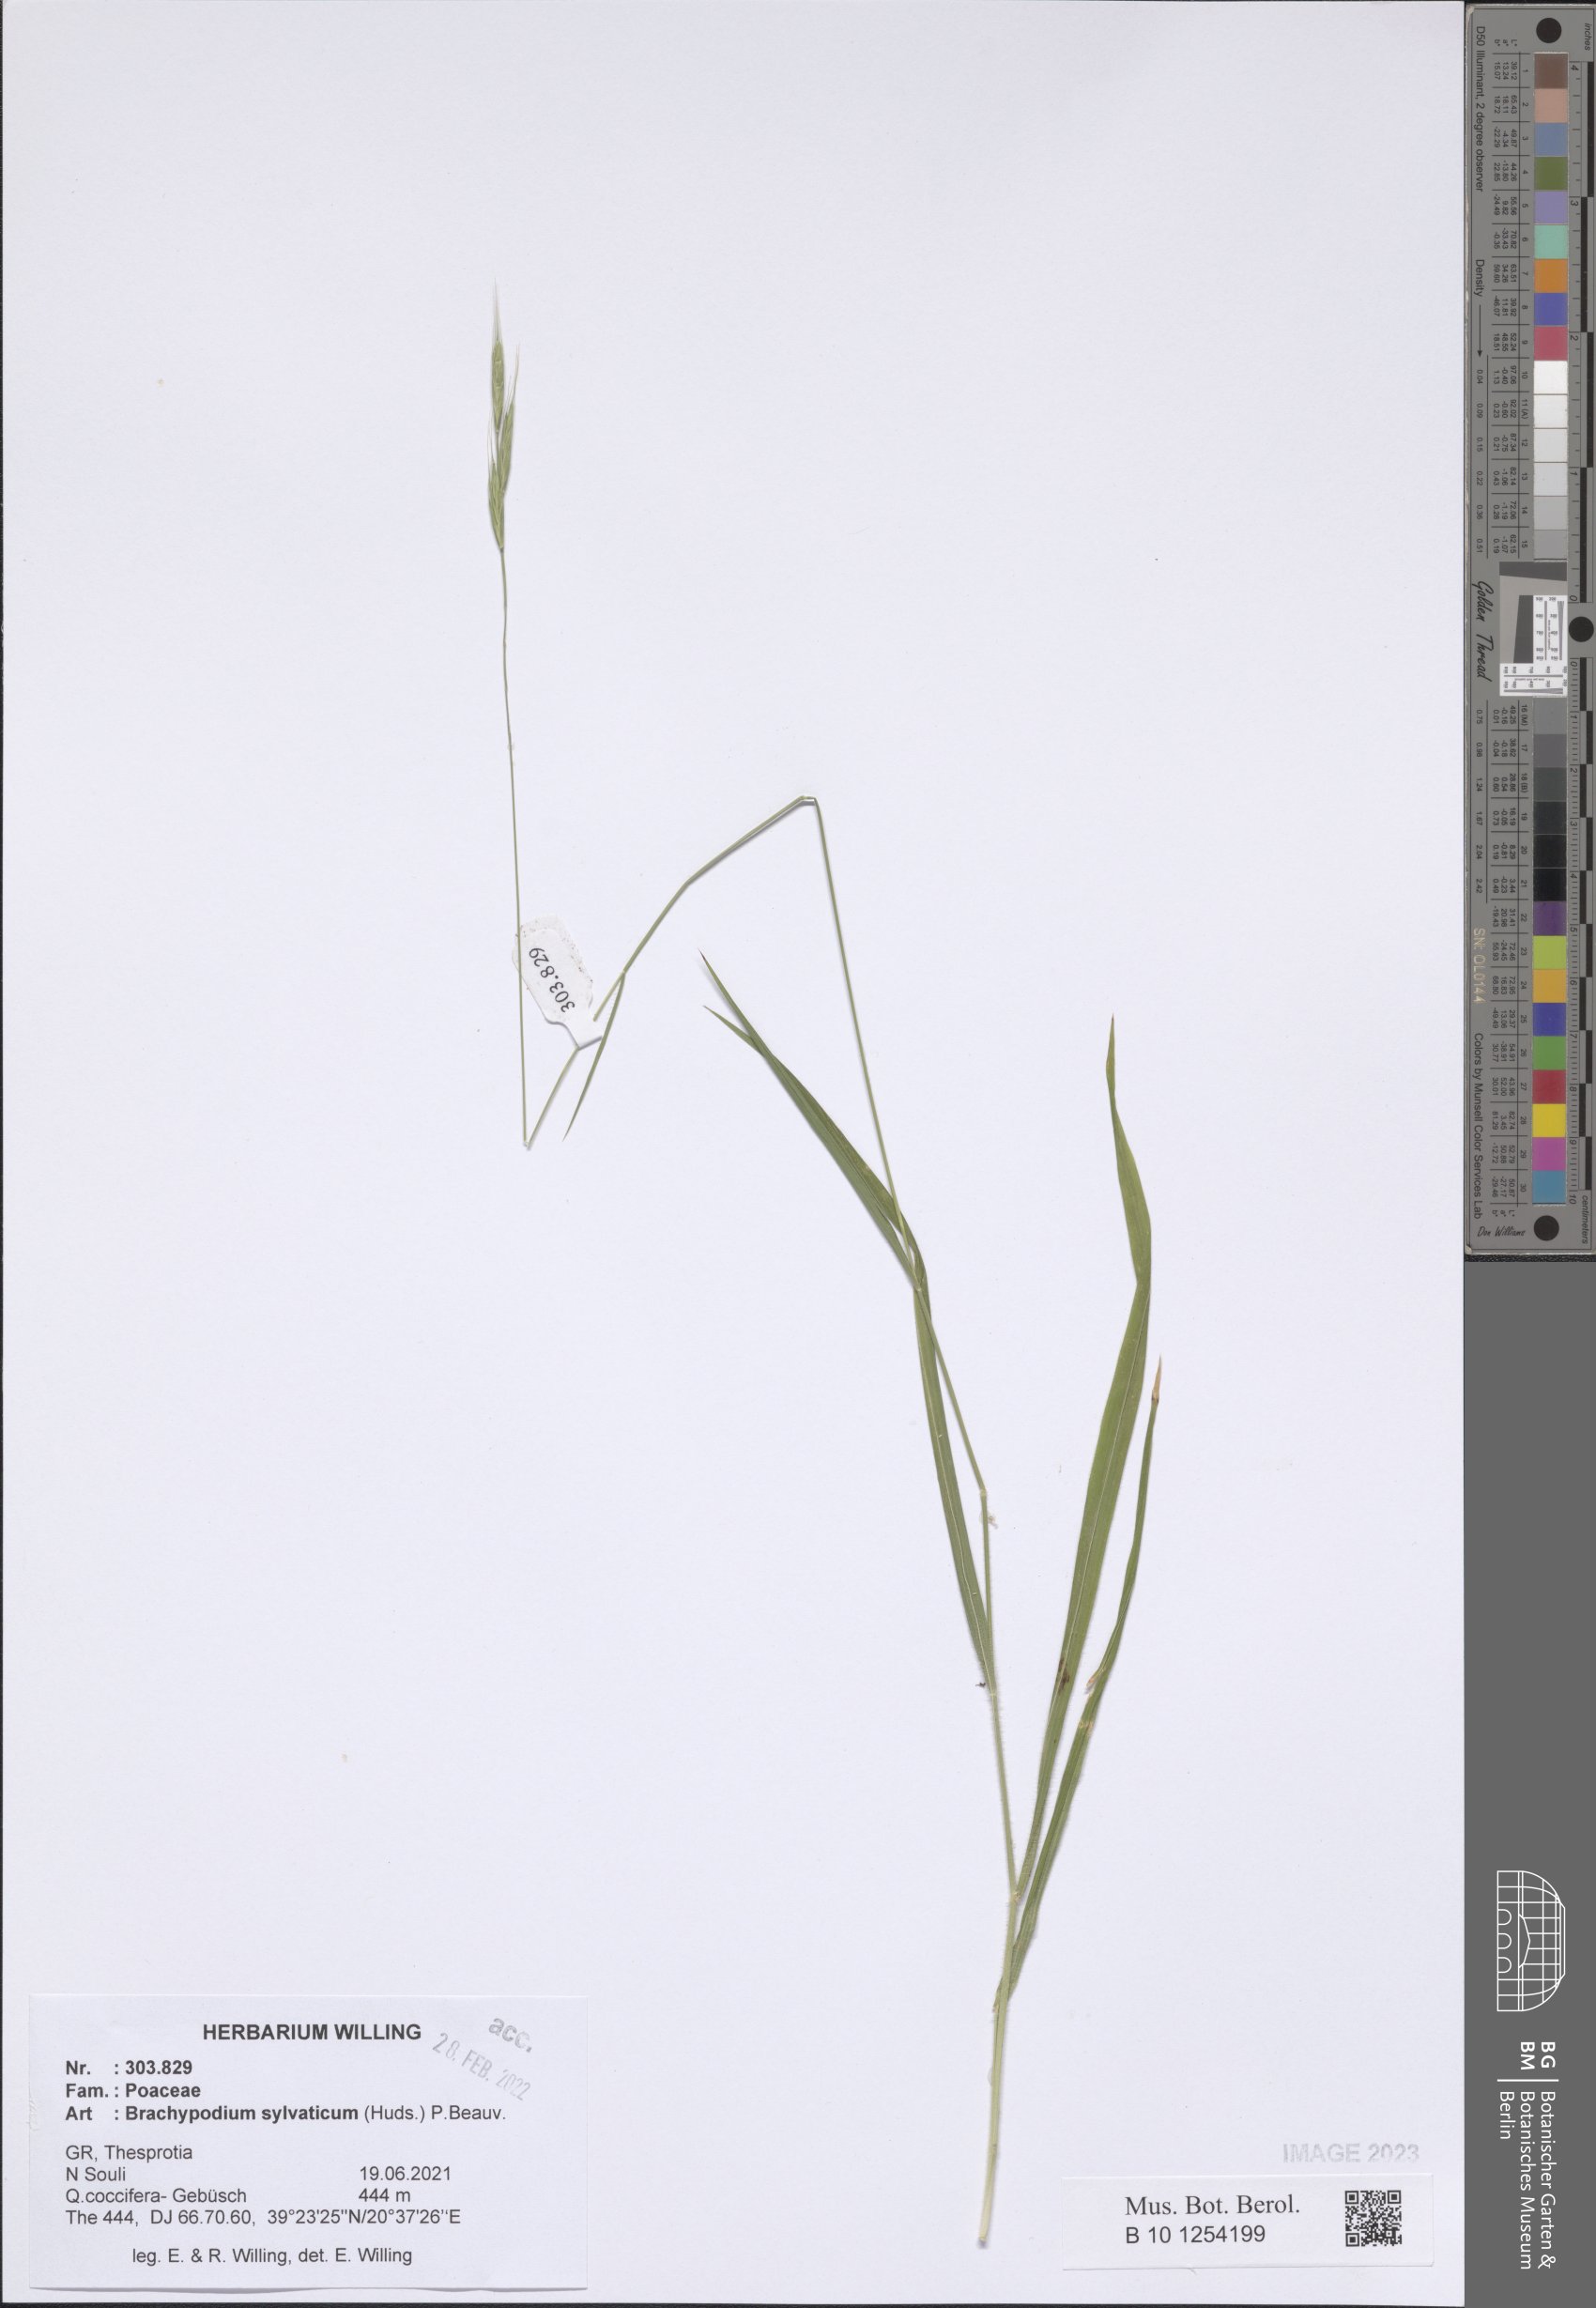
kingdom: Plantae
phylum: Tracheophyta
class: Liliopsida
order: Poales
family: Poaceae
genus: Brachypodium
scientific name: Brachypodium sylvaticum
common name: False-brome
